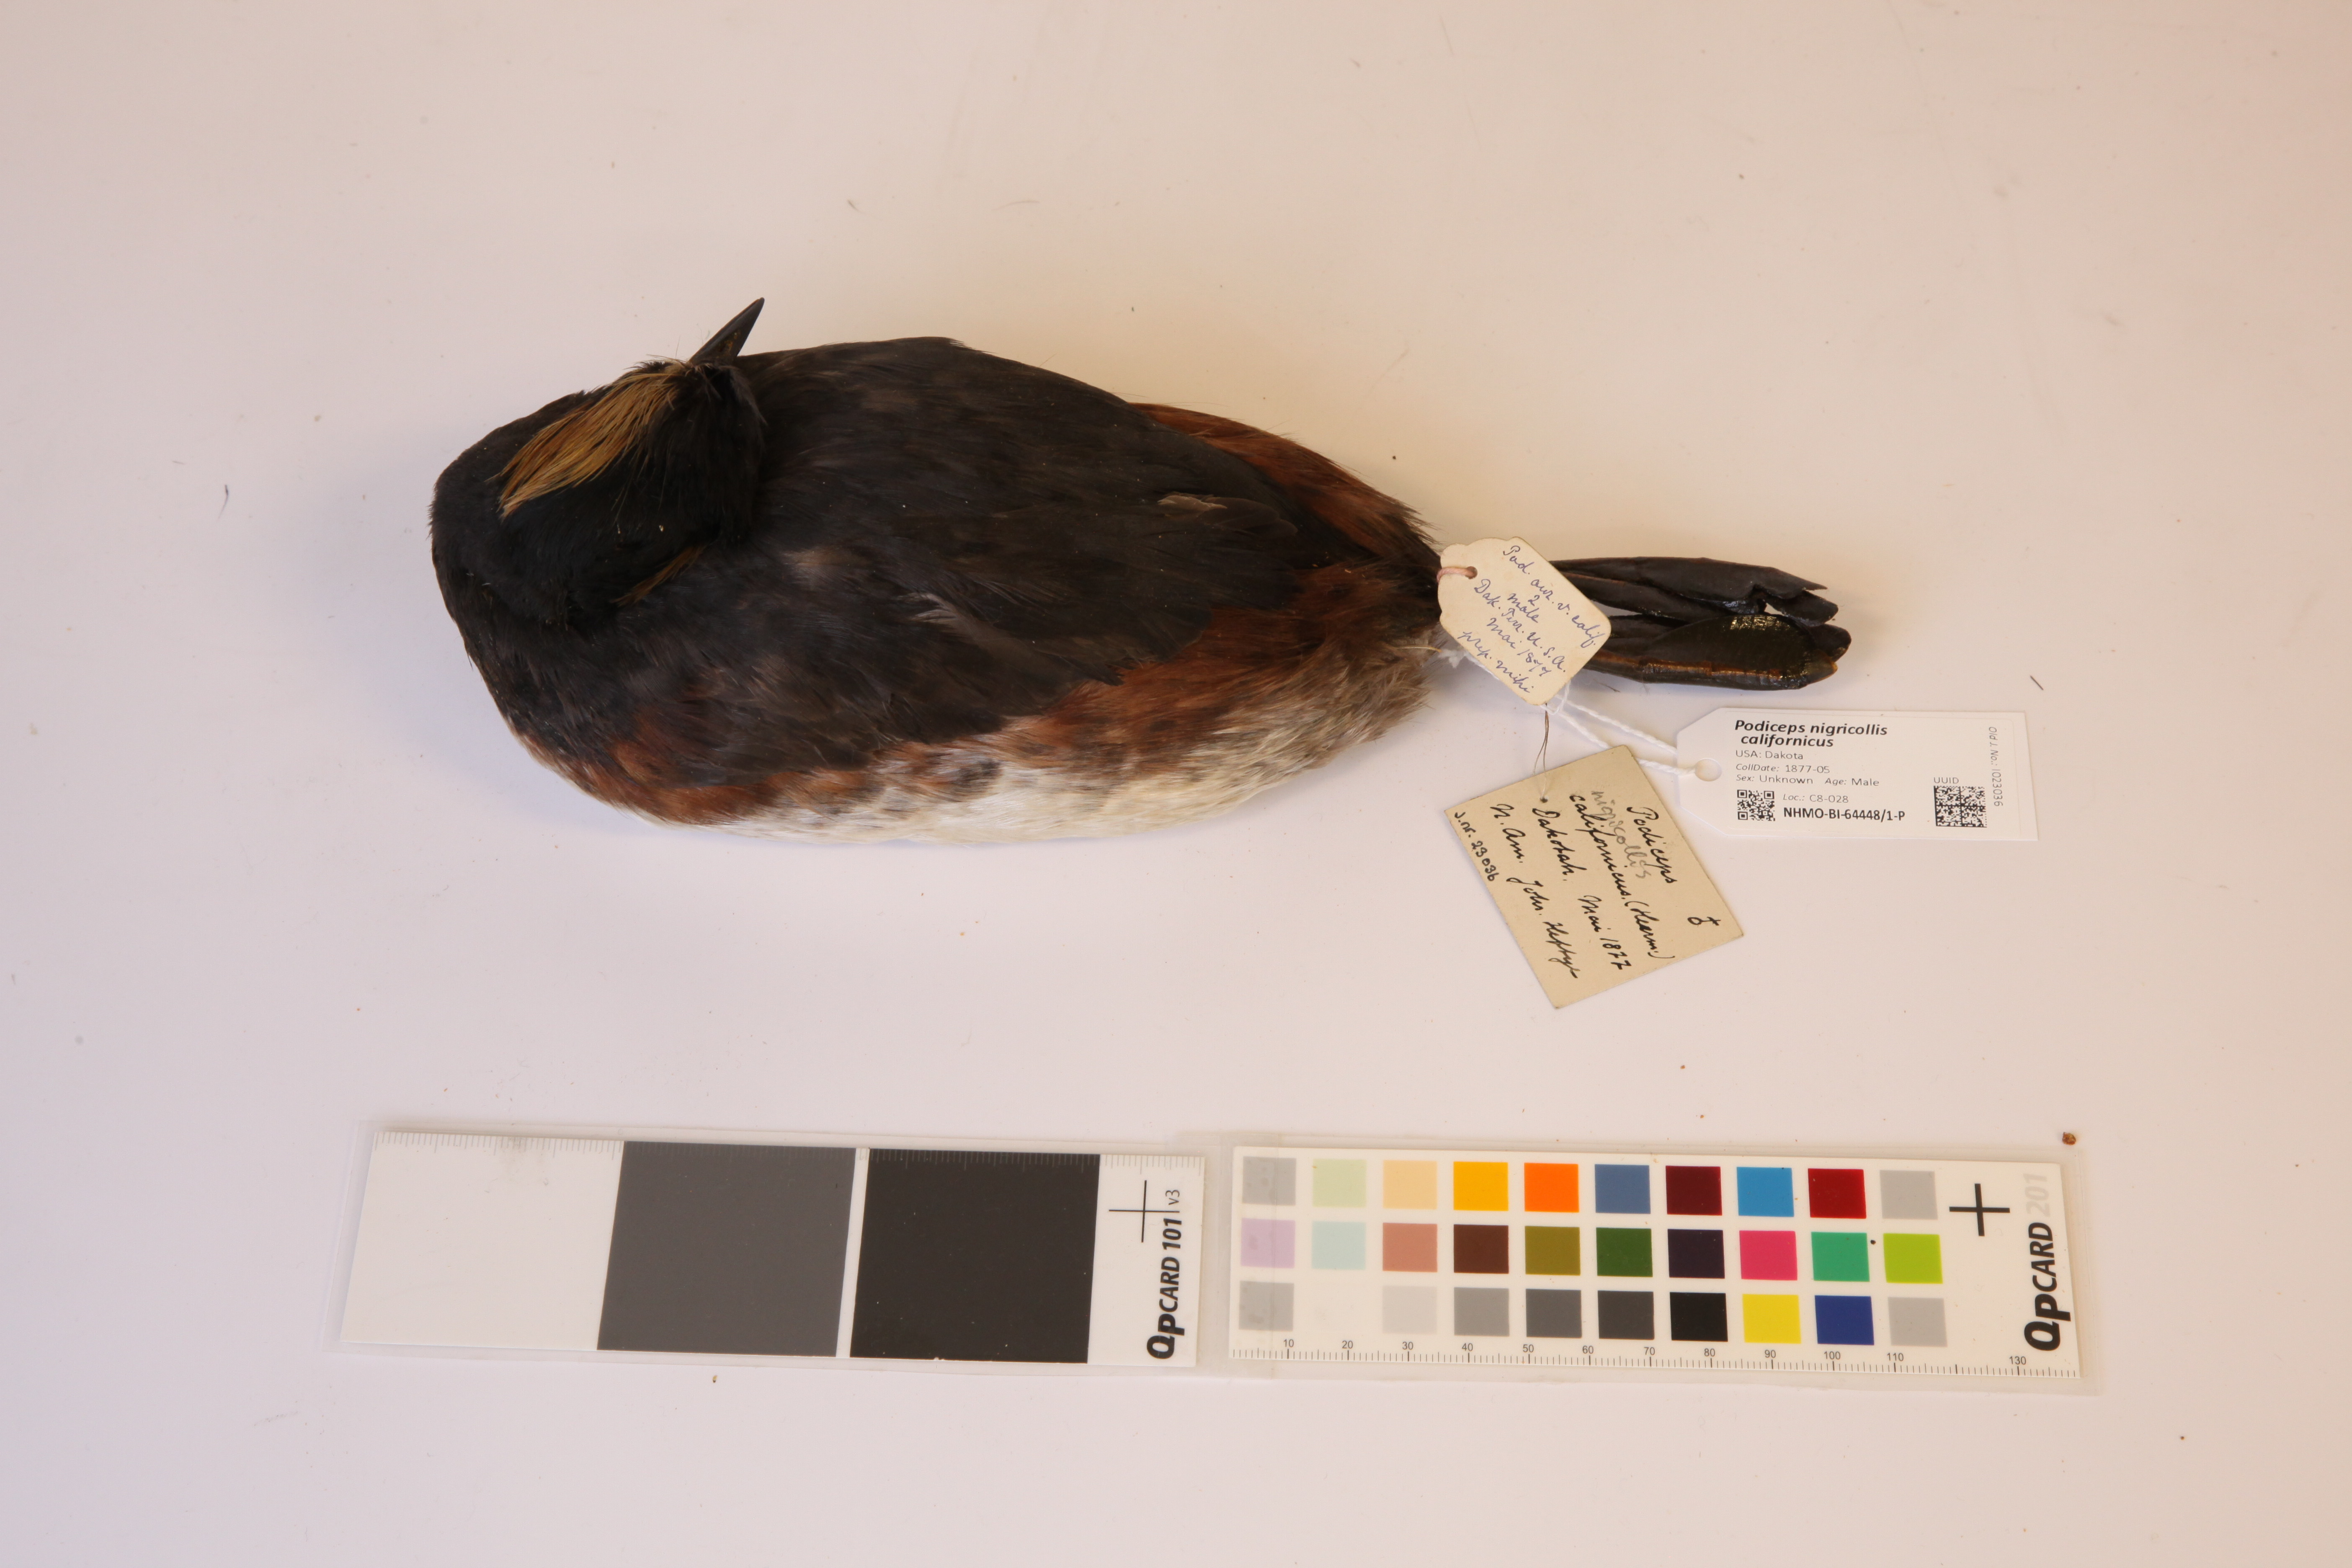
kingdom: Animalia
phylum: Chordata
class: Aves
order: Podicipediformes
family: Podicipedidae
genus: Podiceps
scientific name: Podiceps nigricollis
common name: Black-necked grebe
